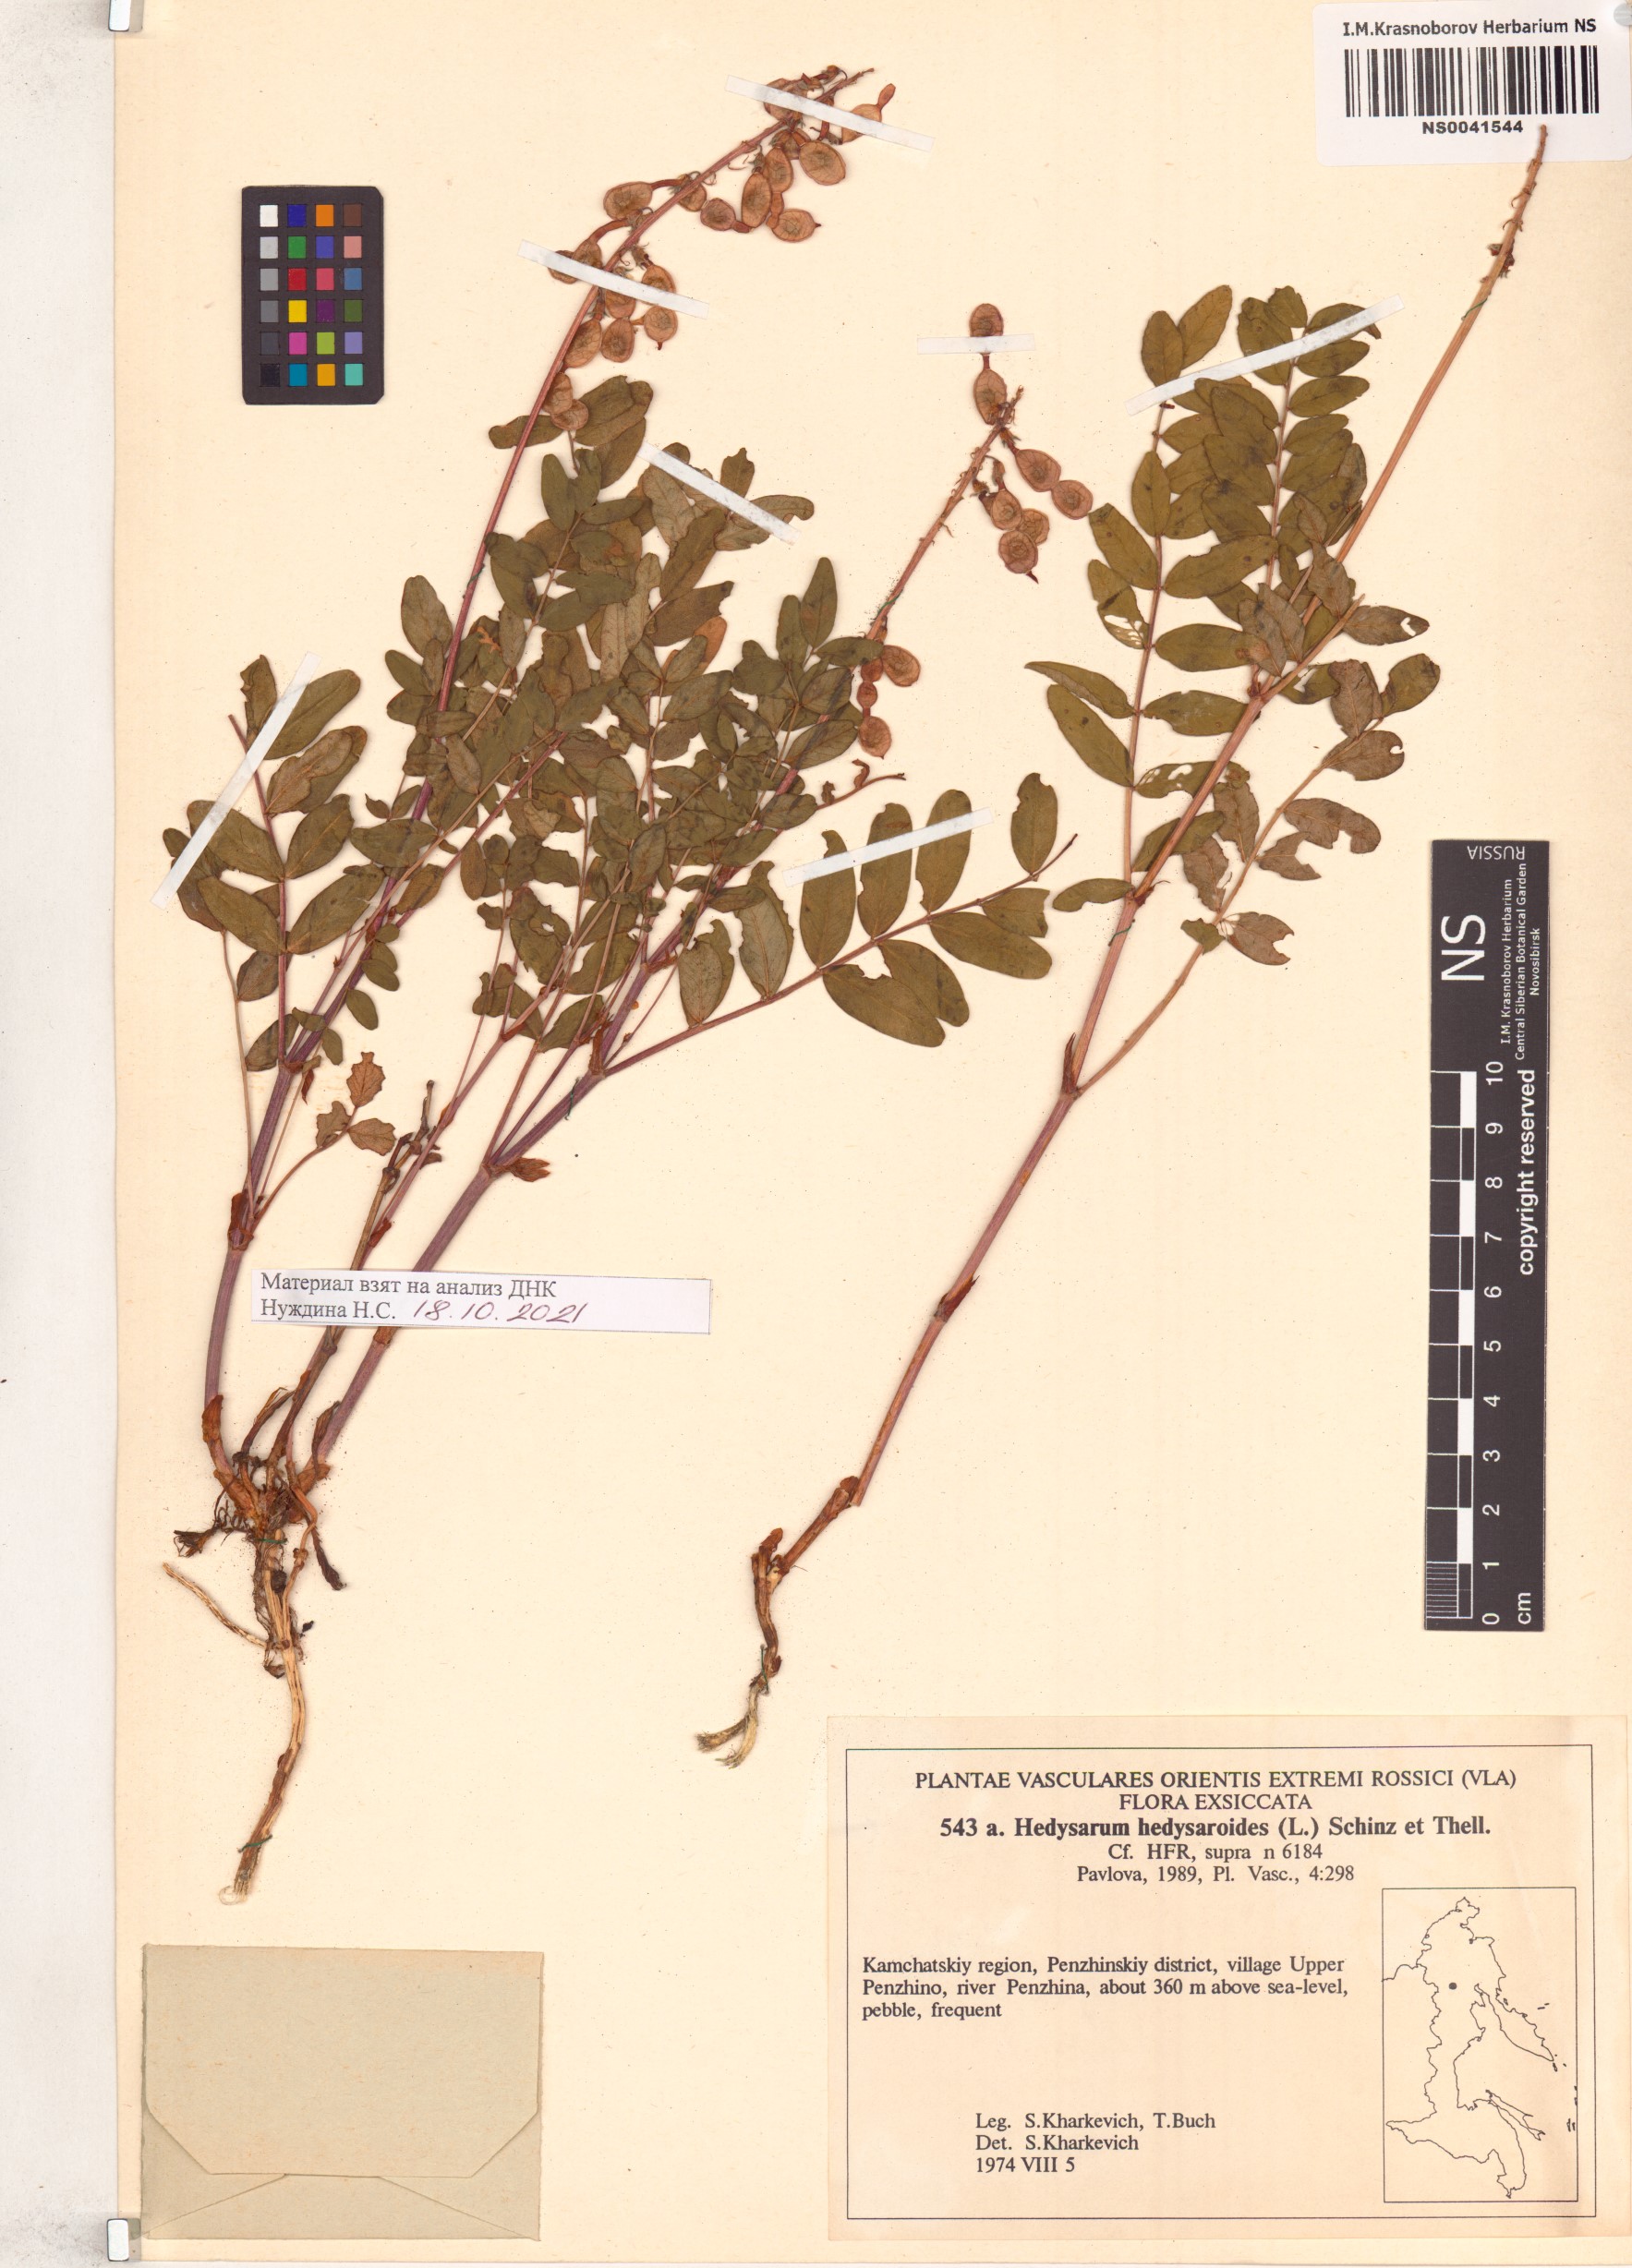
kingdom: Plantae
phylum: Tracheophyta
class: Magnoliopsida
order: Fabales
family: Fabaceae
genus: Hedysarum
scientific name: Hedysarum hedysaroides
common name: Alpine french-honeysuckle
